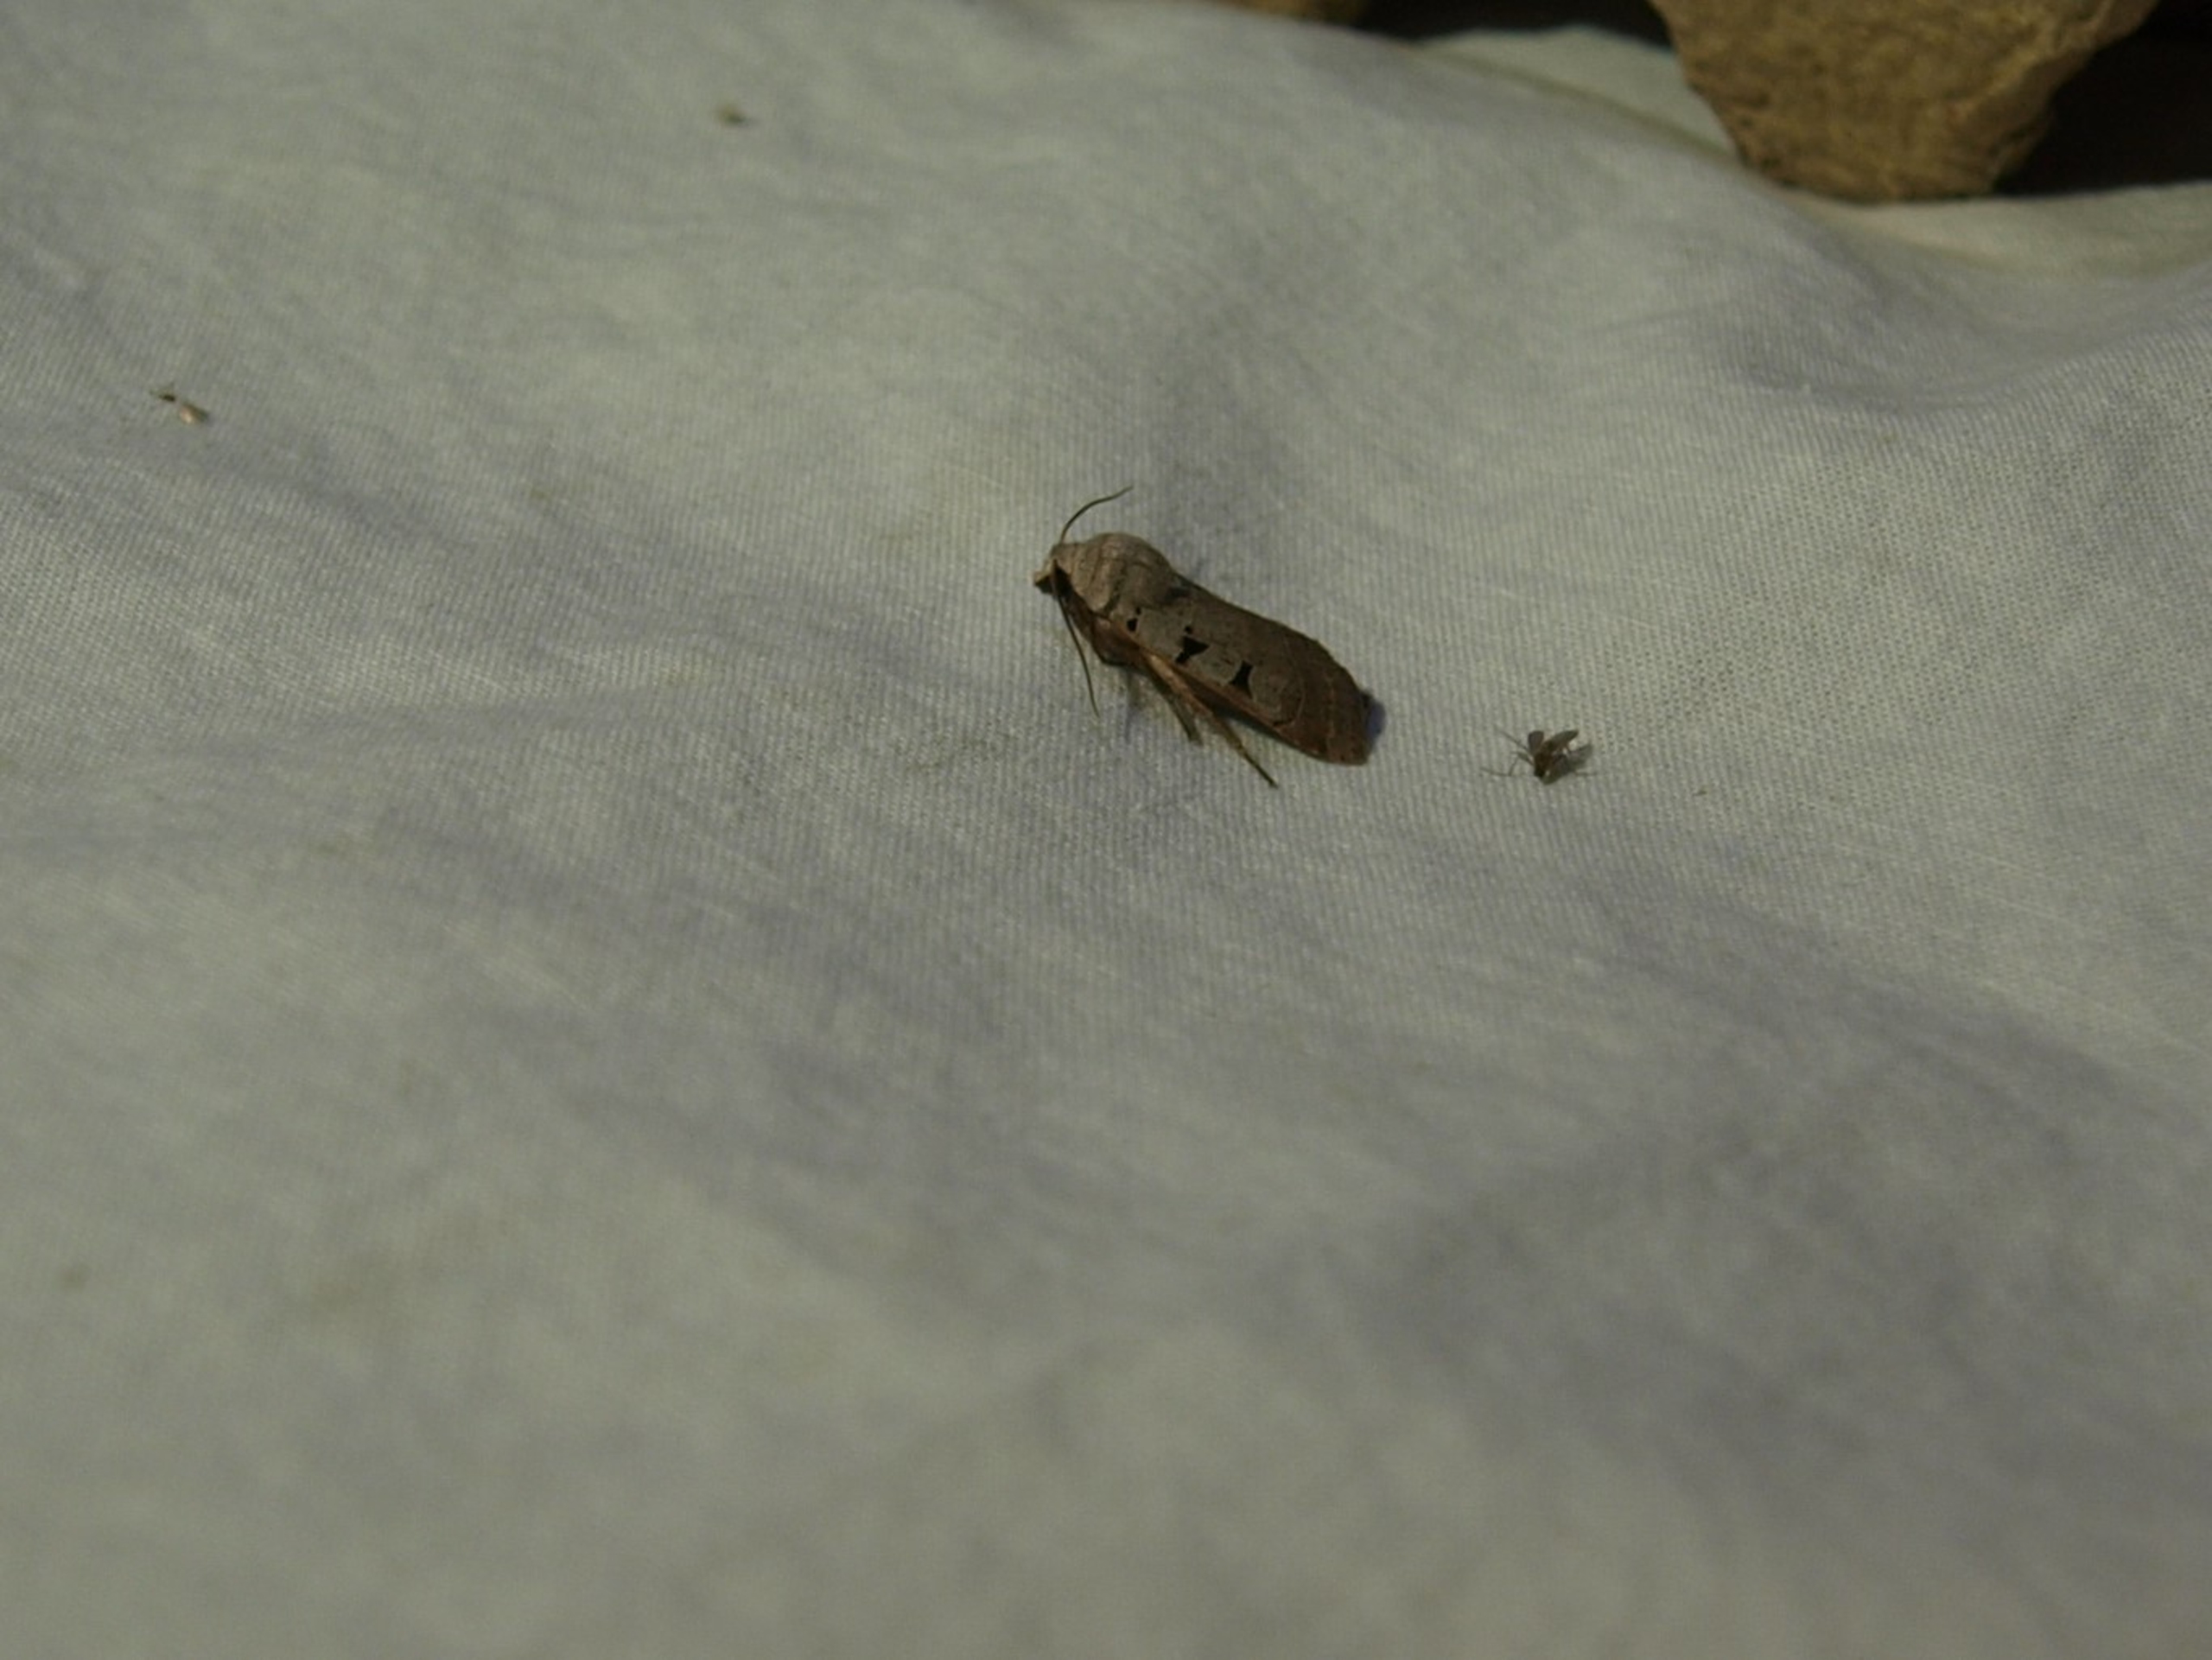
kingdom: Animalia
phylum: Arthropoda
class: Insecta
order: Lepidoptera
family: Noctuidae
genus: Eugnorisma
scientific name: Eugnorisma glareosa
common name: Strand-gråugle
